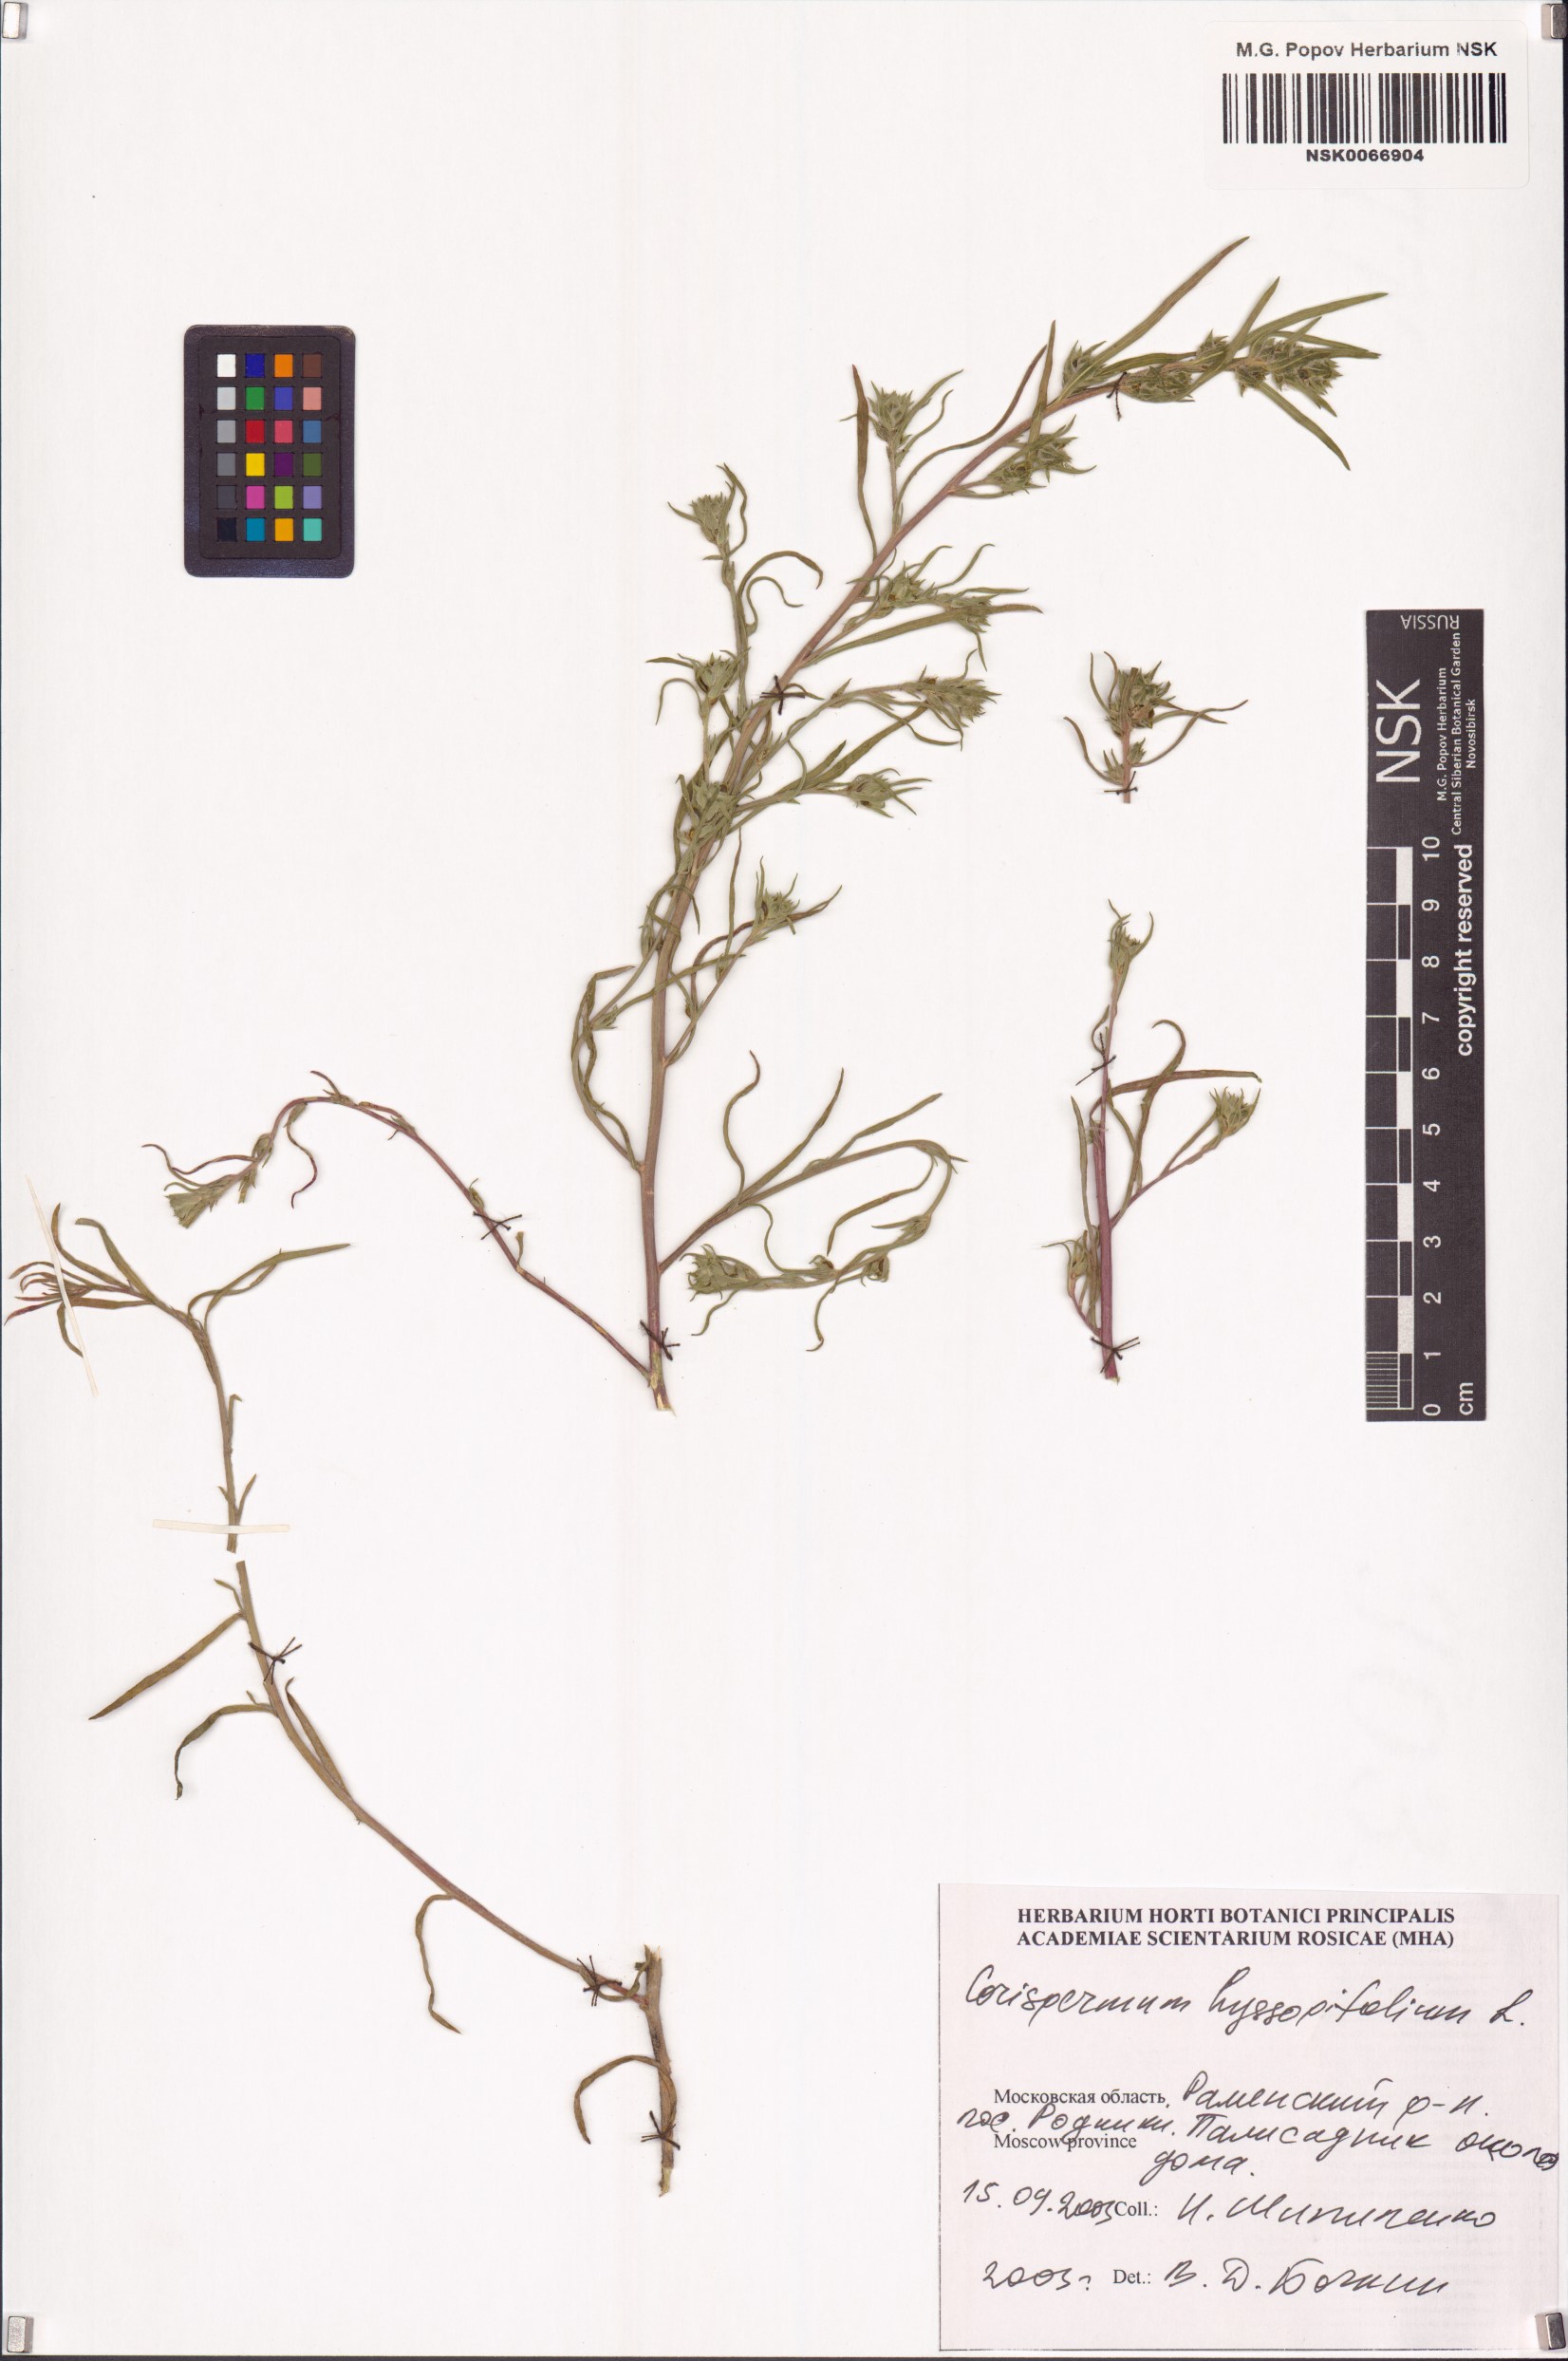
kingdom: Plantae
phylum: Tracheophyta
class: Magnoliopsida
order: Caryophyllales
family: Amaranthaceae
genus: Corispermum
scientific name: Corispermum hyssopifolium
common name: Bugseed
